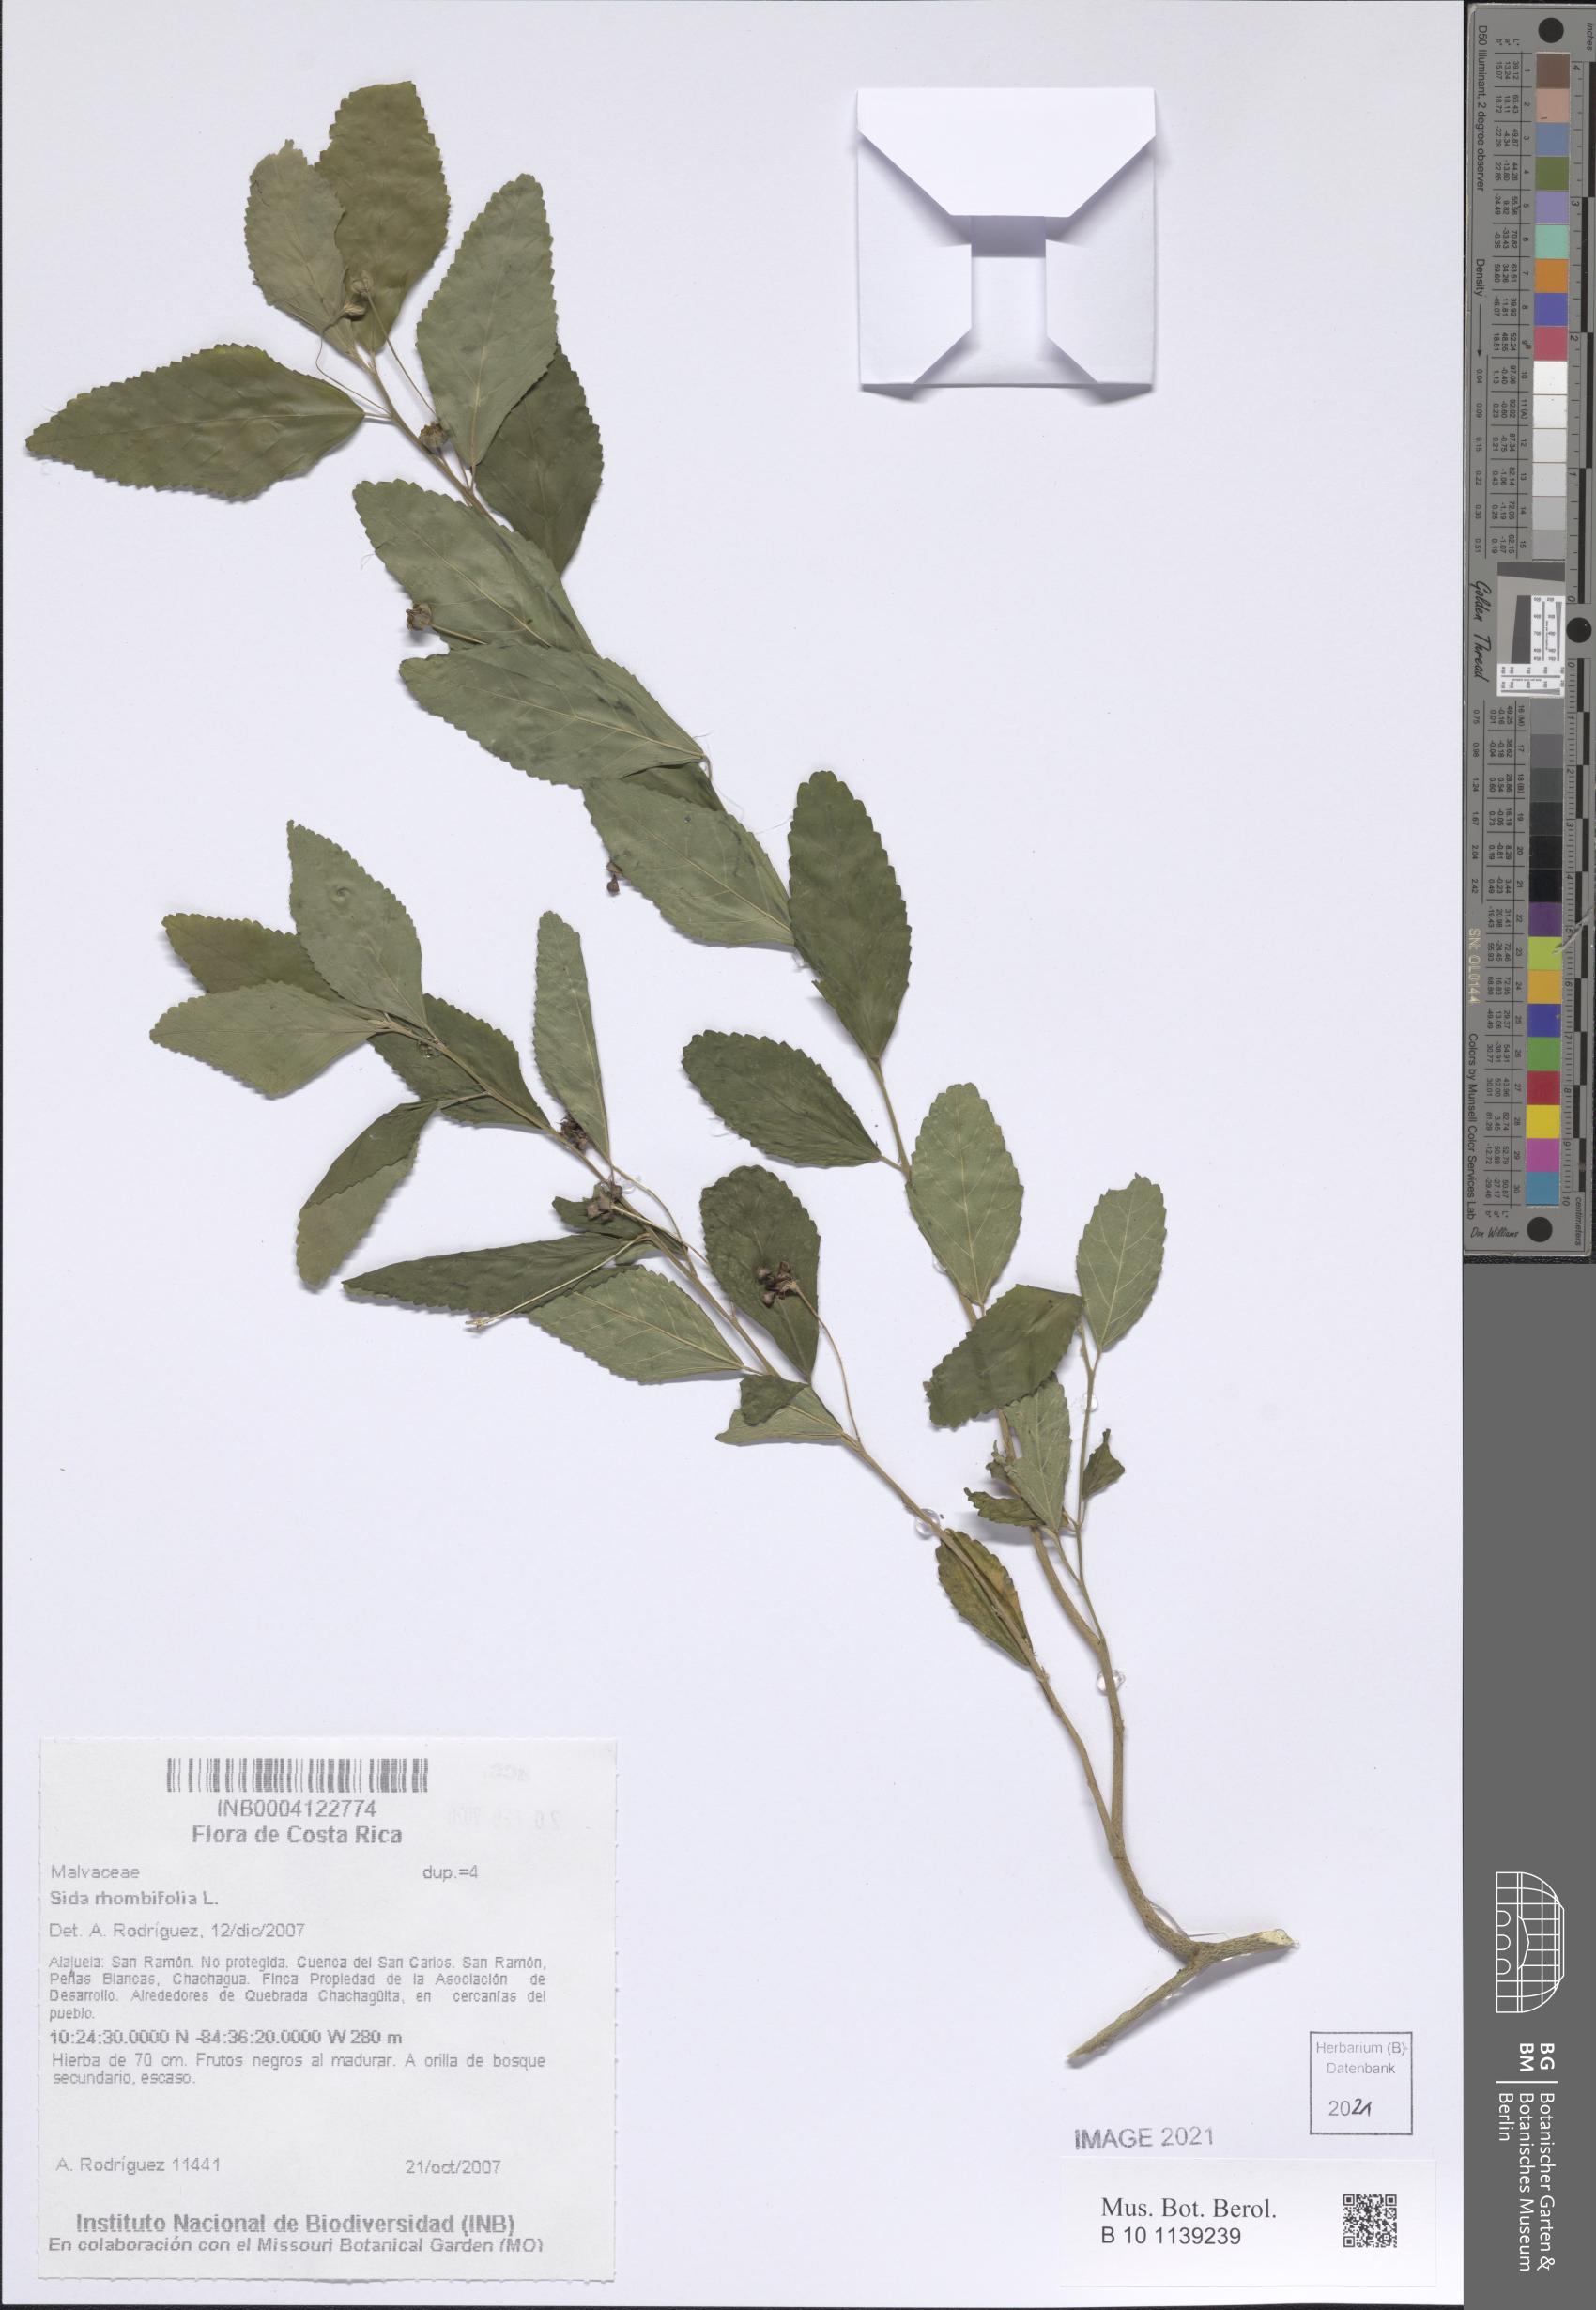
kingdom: Plantae
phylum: Tracheophyta
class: Magnoliopsida
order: Malvales
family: Malvaceae
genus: Sida
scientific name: Sida rhombifolia
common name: Queensland-hemp
